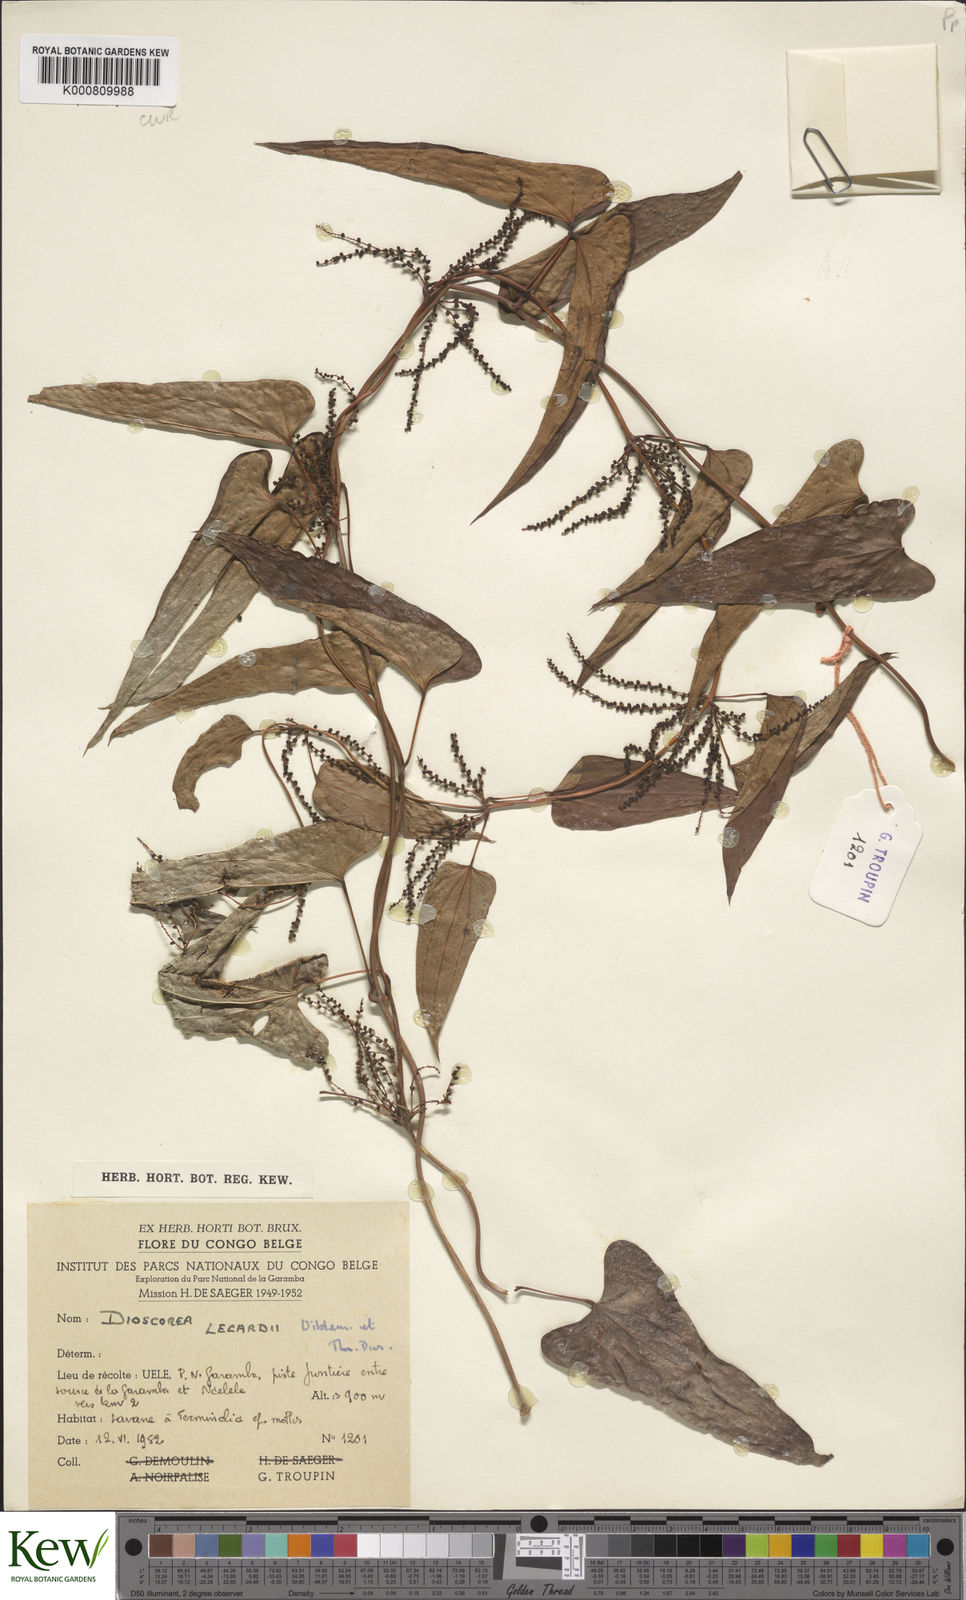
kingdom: Plantae
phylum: Tracheophyta
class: Liliopsida
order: Dioscoreales
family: Dioscoreaceae
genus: Dioscorea
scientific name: Dioscorea sagittifolia
